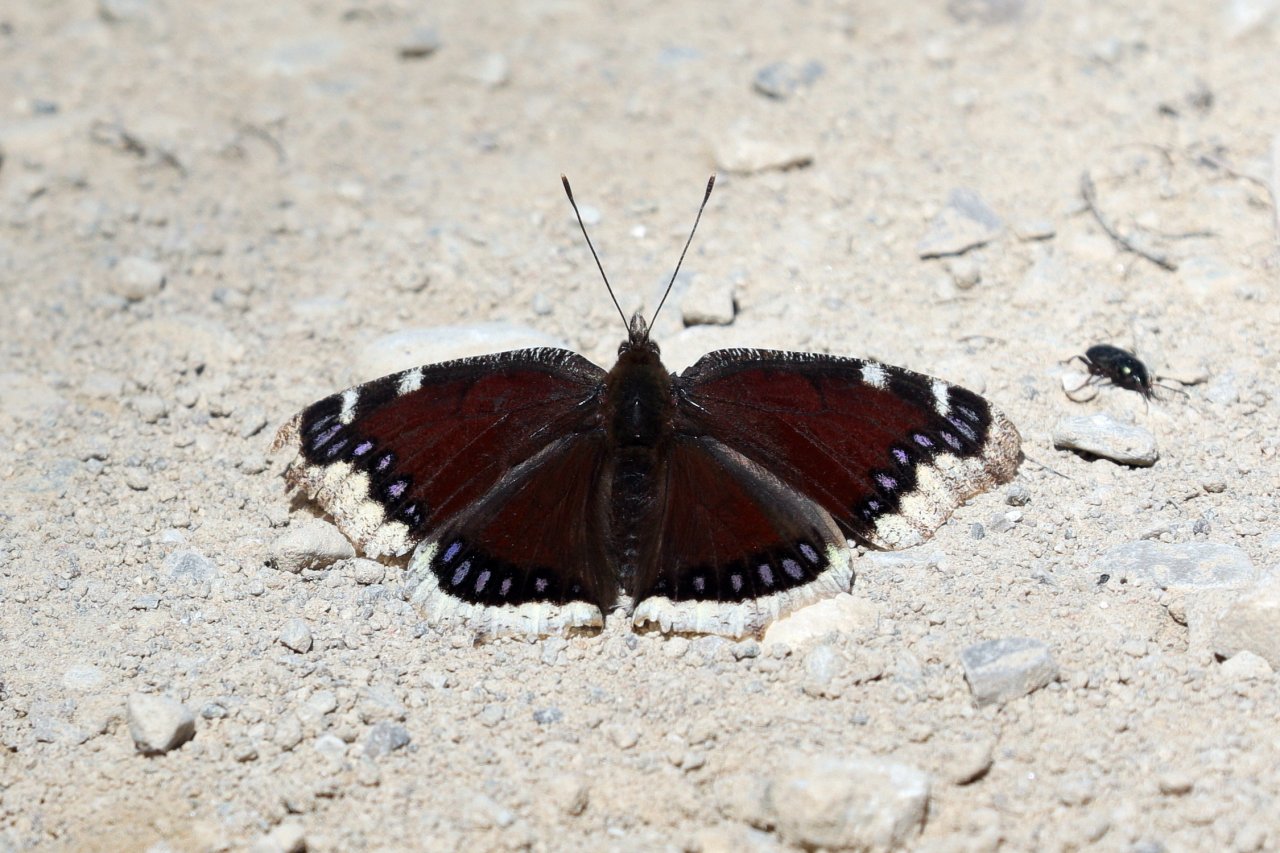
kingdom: Animalia
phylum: Arthropoda
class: Insecta
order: Lepidoptera
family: Nymphalidae
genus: Nymphalis
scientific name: Nymphalis antiopa
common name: Mourning Cloak
